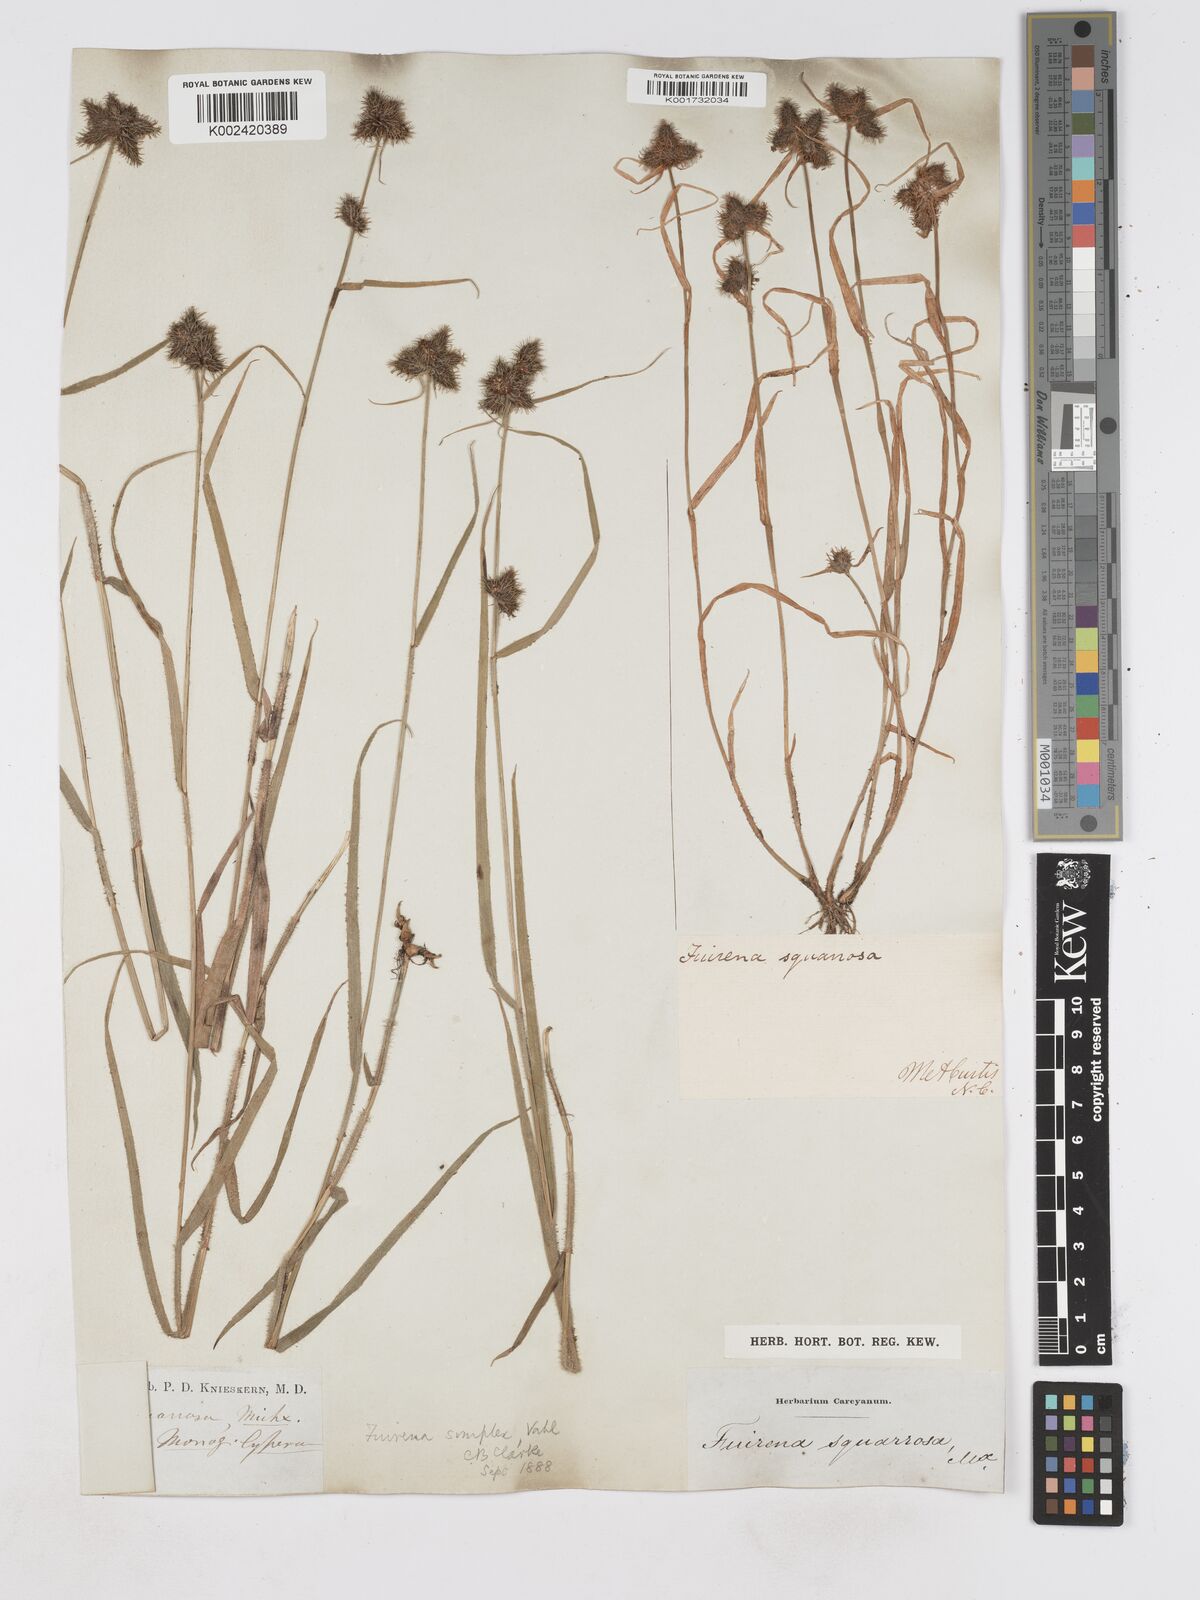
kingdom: Plantae
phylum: Tracheophyta
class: Liliopsida
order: Poales
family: Cyperaceae
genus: Fuirena
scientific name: Fuirena simplex
